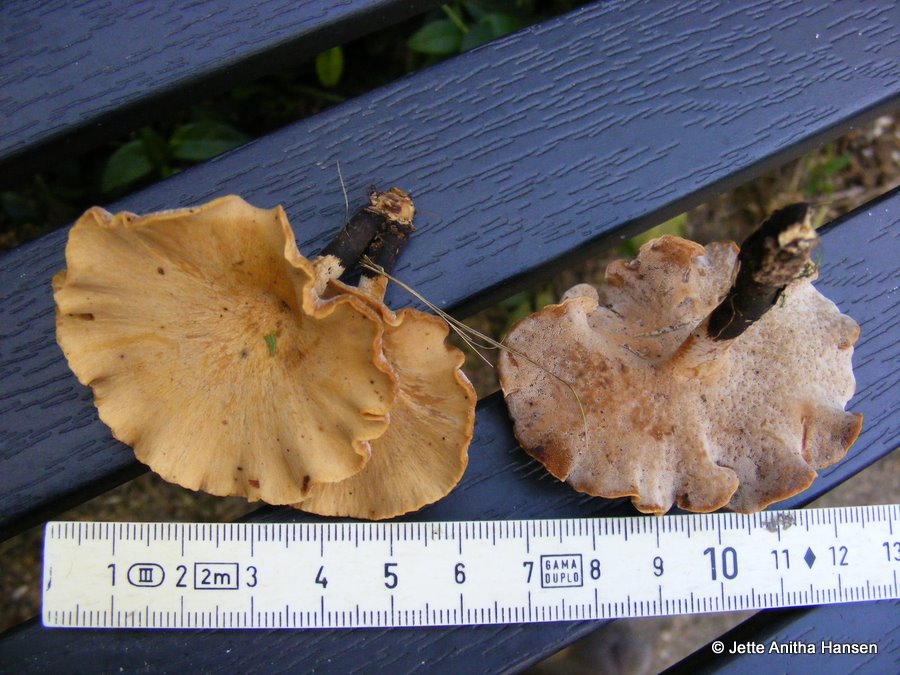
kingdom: Fungi
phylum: Basidiomycota
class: Agaricomycetes
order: Polyporales
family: Polyporaceae
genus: Cerioporus
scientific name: Cerioporus varius
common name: foranderlig stilkporesvamp
